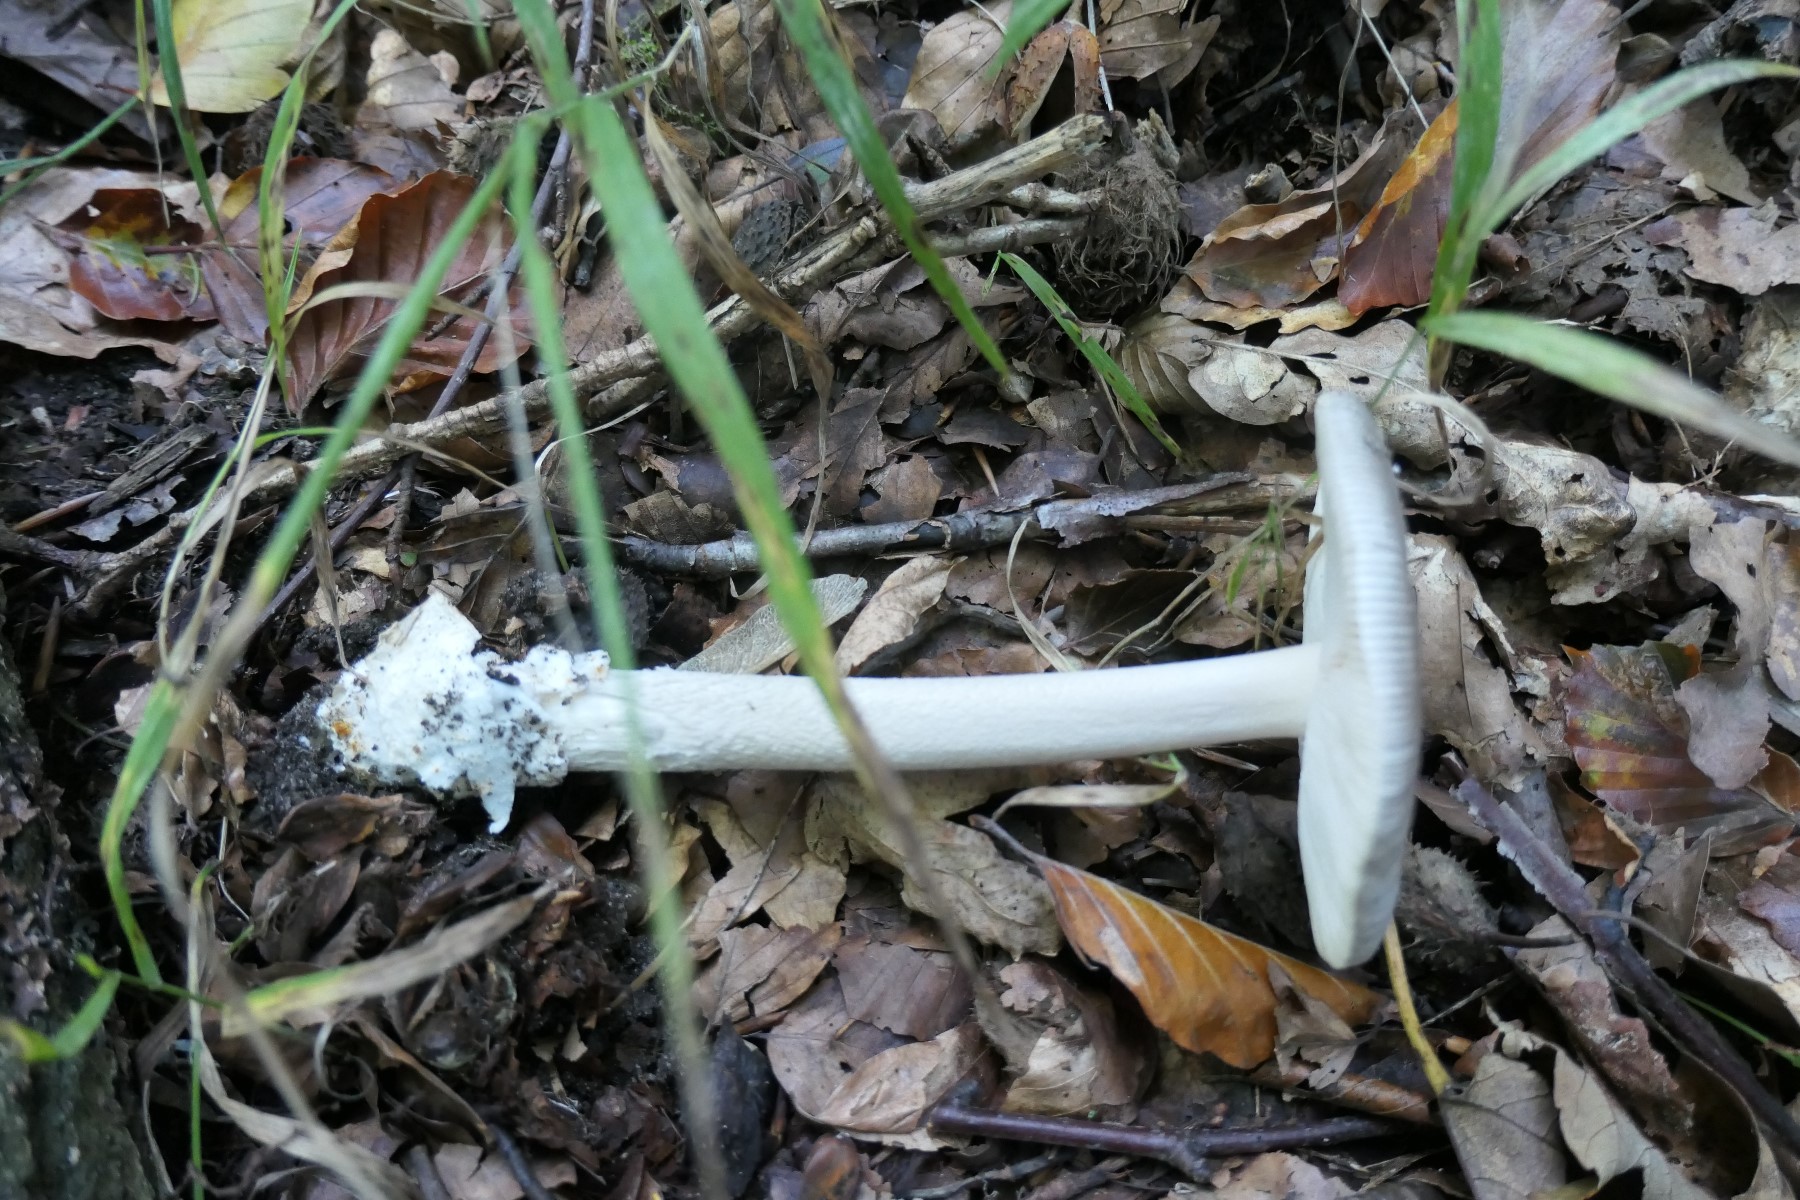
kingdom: Fungi
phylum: Basidiomycota
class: Agaricomycetes
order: Agaricales
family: Amanitaceae
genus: Amanita
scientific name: Amanita
